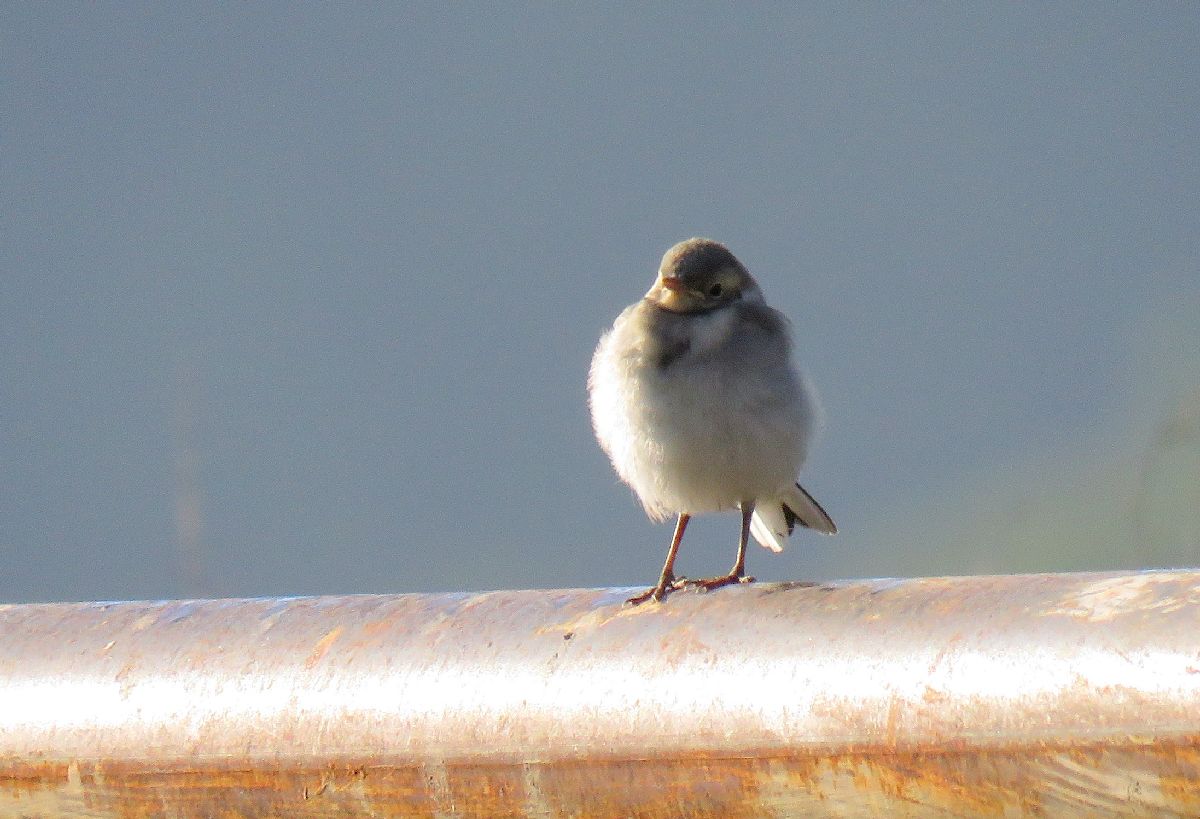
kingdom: Animalia
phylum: Chordata
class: Aves
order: Passeriformes
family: Motacillidae
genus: Motacilla
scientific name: Motacilla alba
